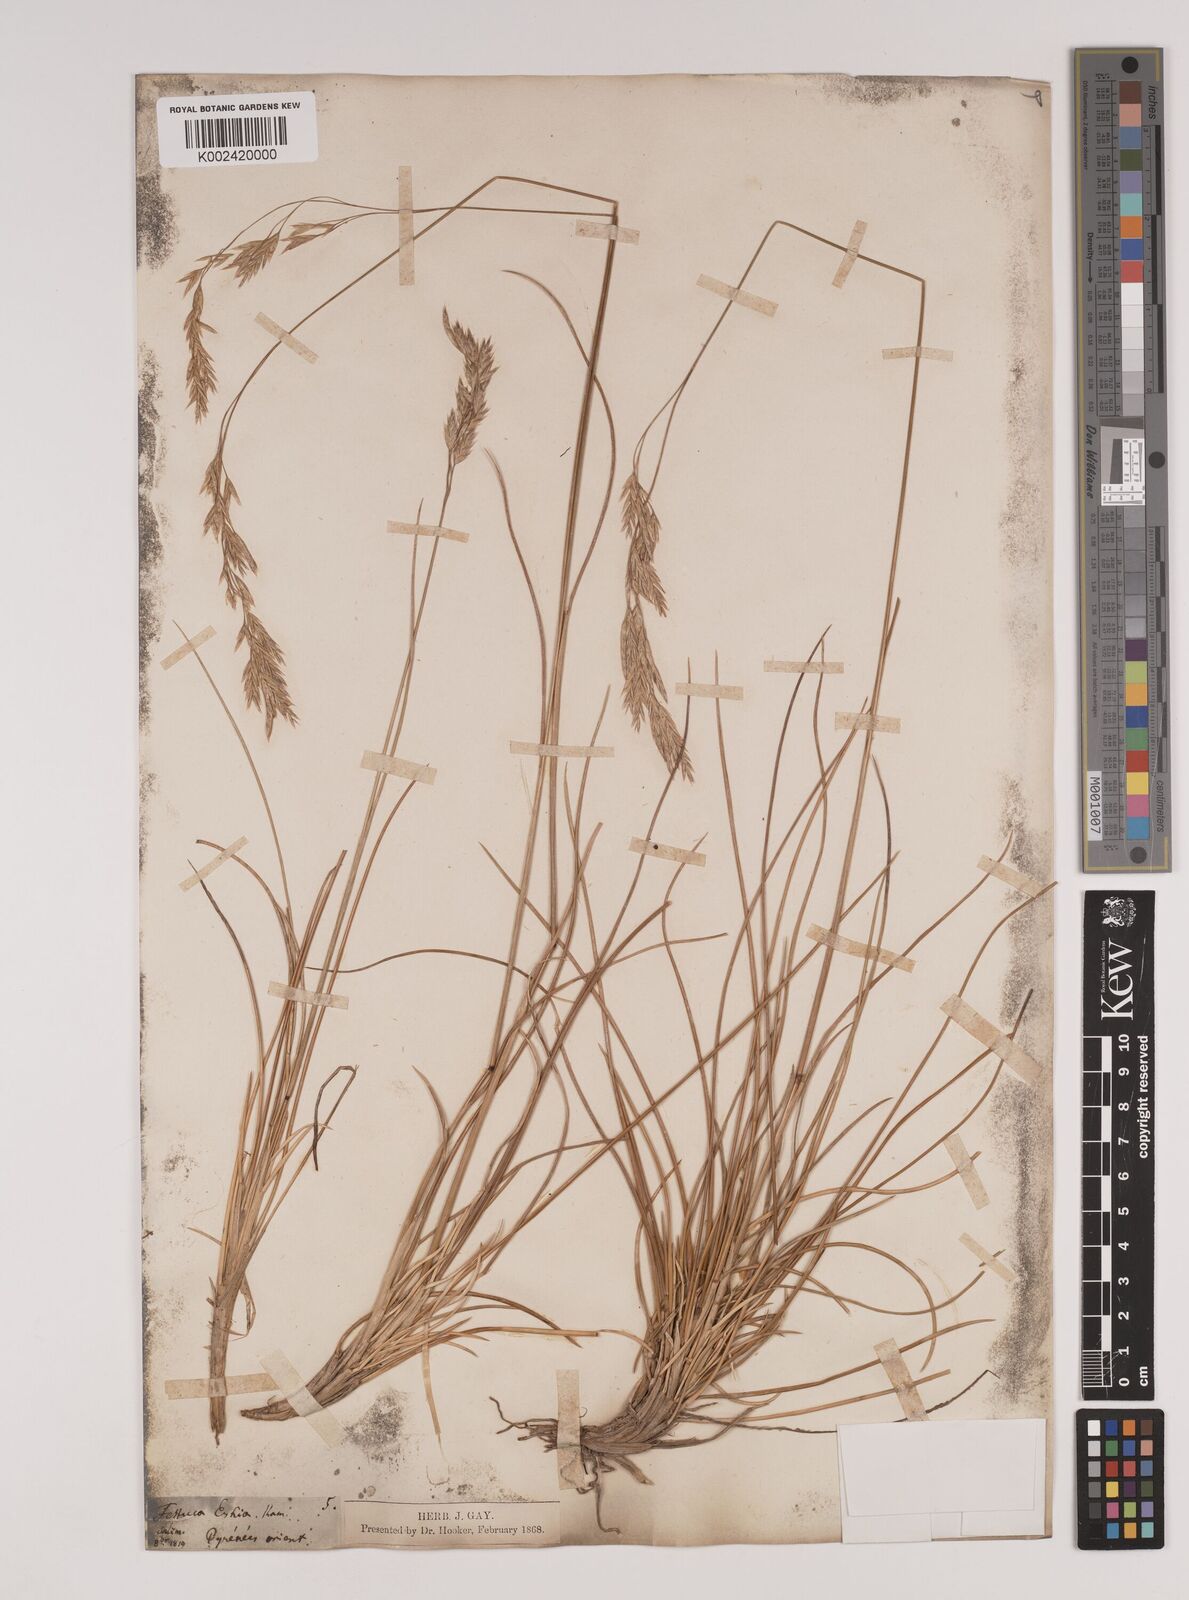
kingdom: Plantae
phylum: Tracheophyta
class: Liliopsida
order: Poales
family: Poaceae
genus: Festuca
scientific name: Festuca eskia
